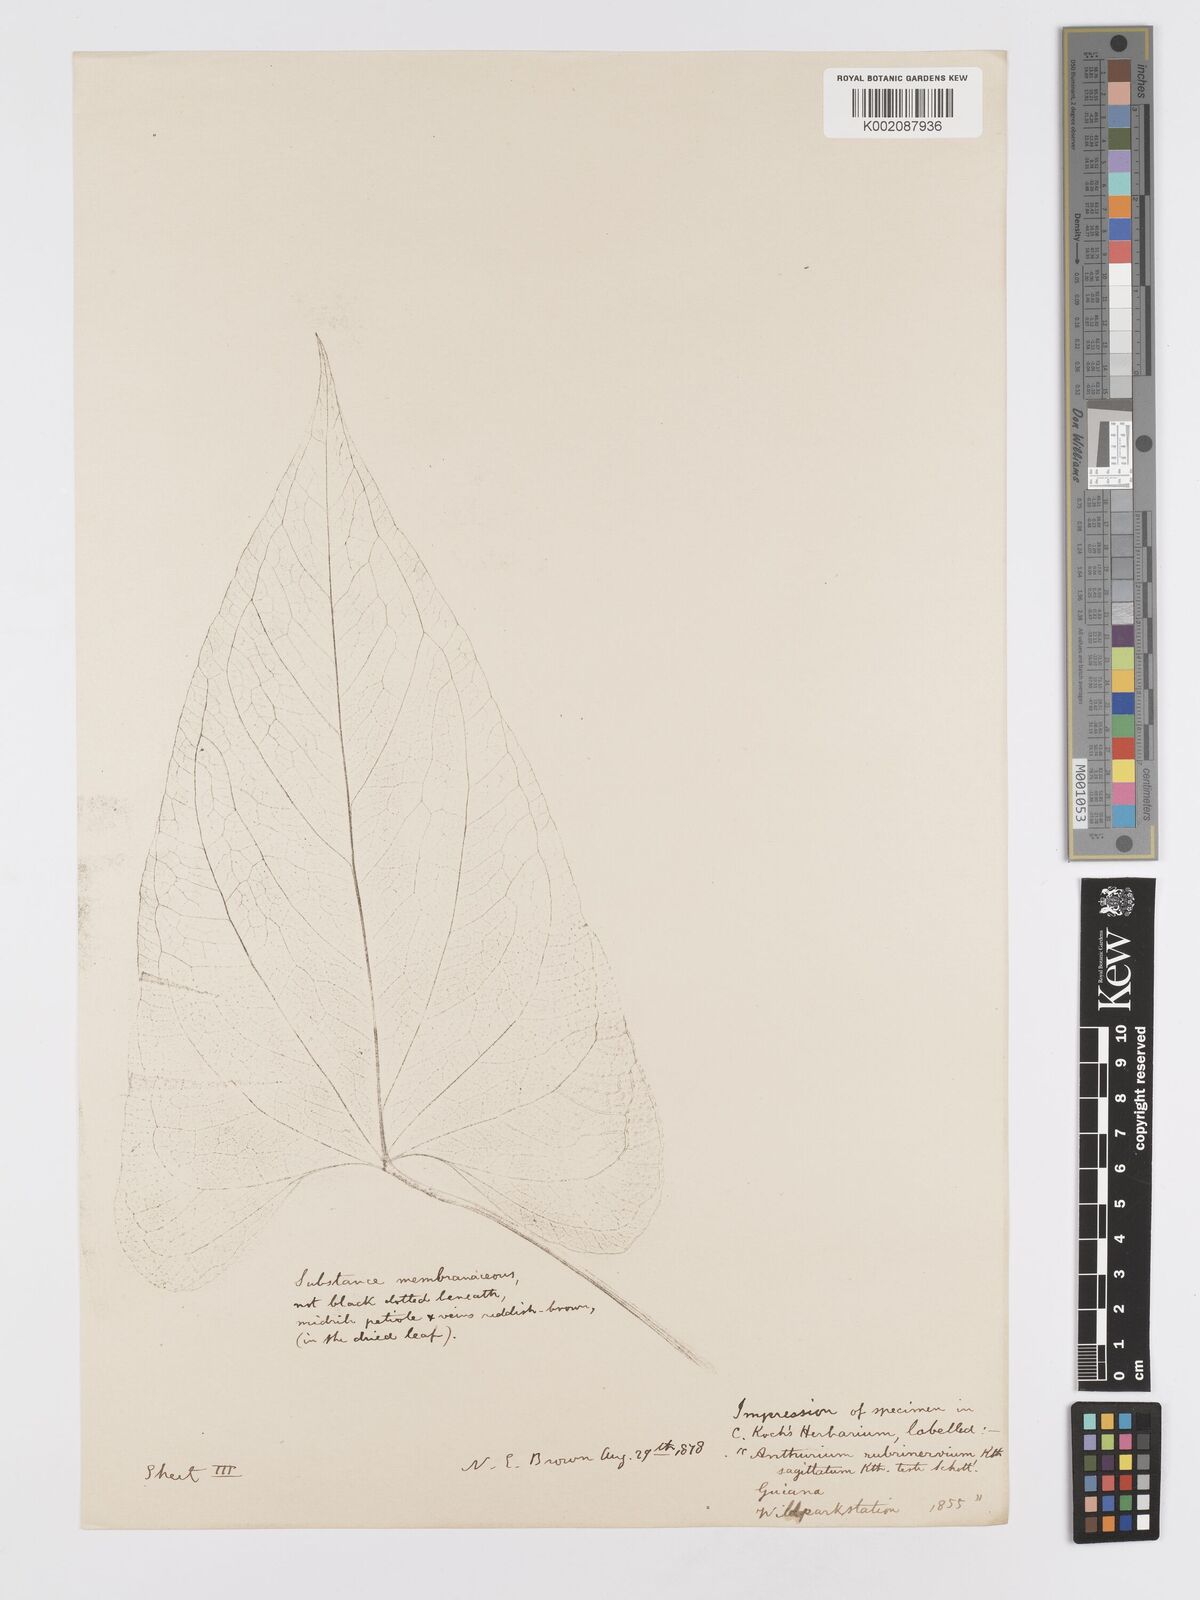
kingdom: Plantae
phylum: Tracheophyta
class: Liliopsida
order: Alismatales
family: Araceae
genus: Anthurium
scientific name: Anthurium sagittatum
